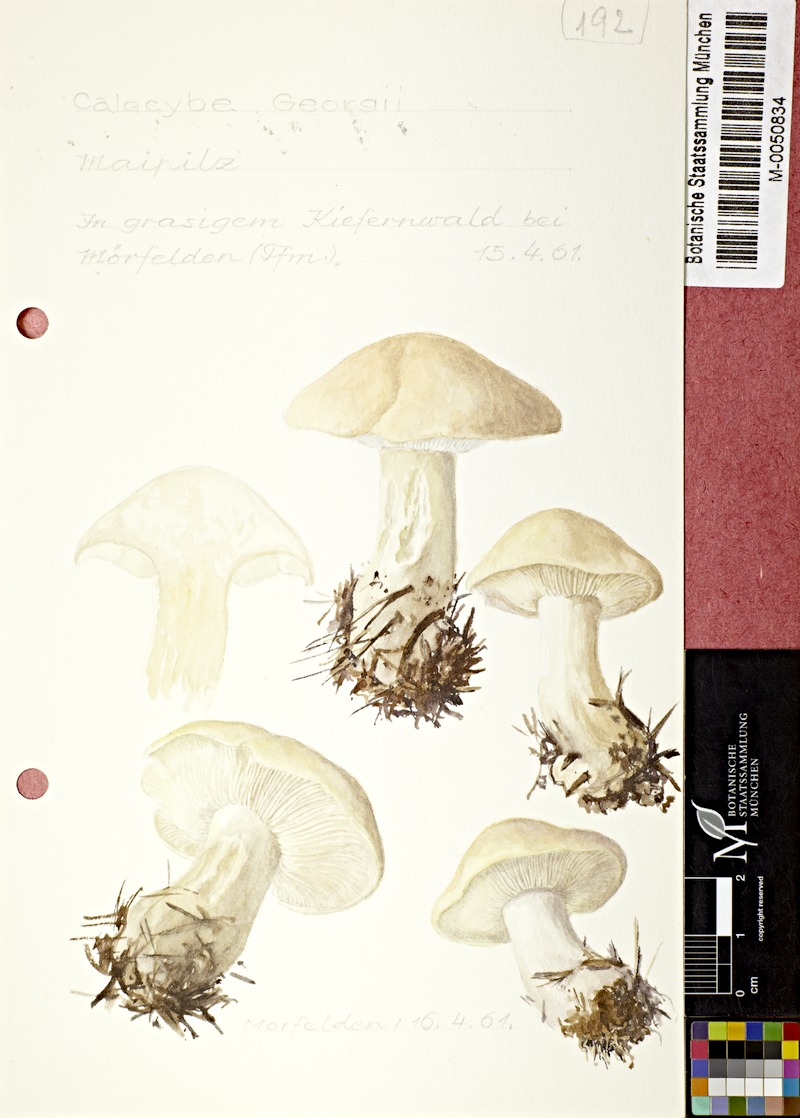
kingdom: Fungi
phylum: Basidiomycota
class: Agaricomycetes
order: Agaricales
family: Lyophyllaceae
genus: Calocybe
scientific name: Calocybe gambosa
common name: St. george's mushroom
